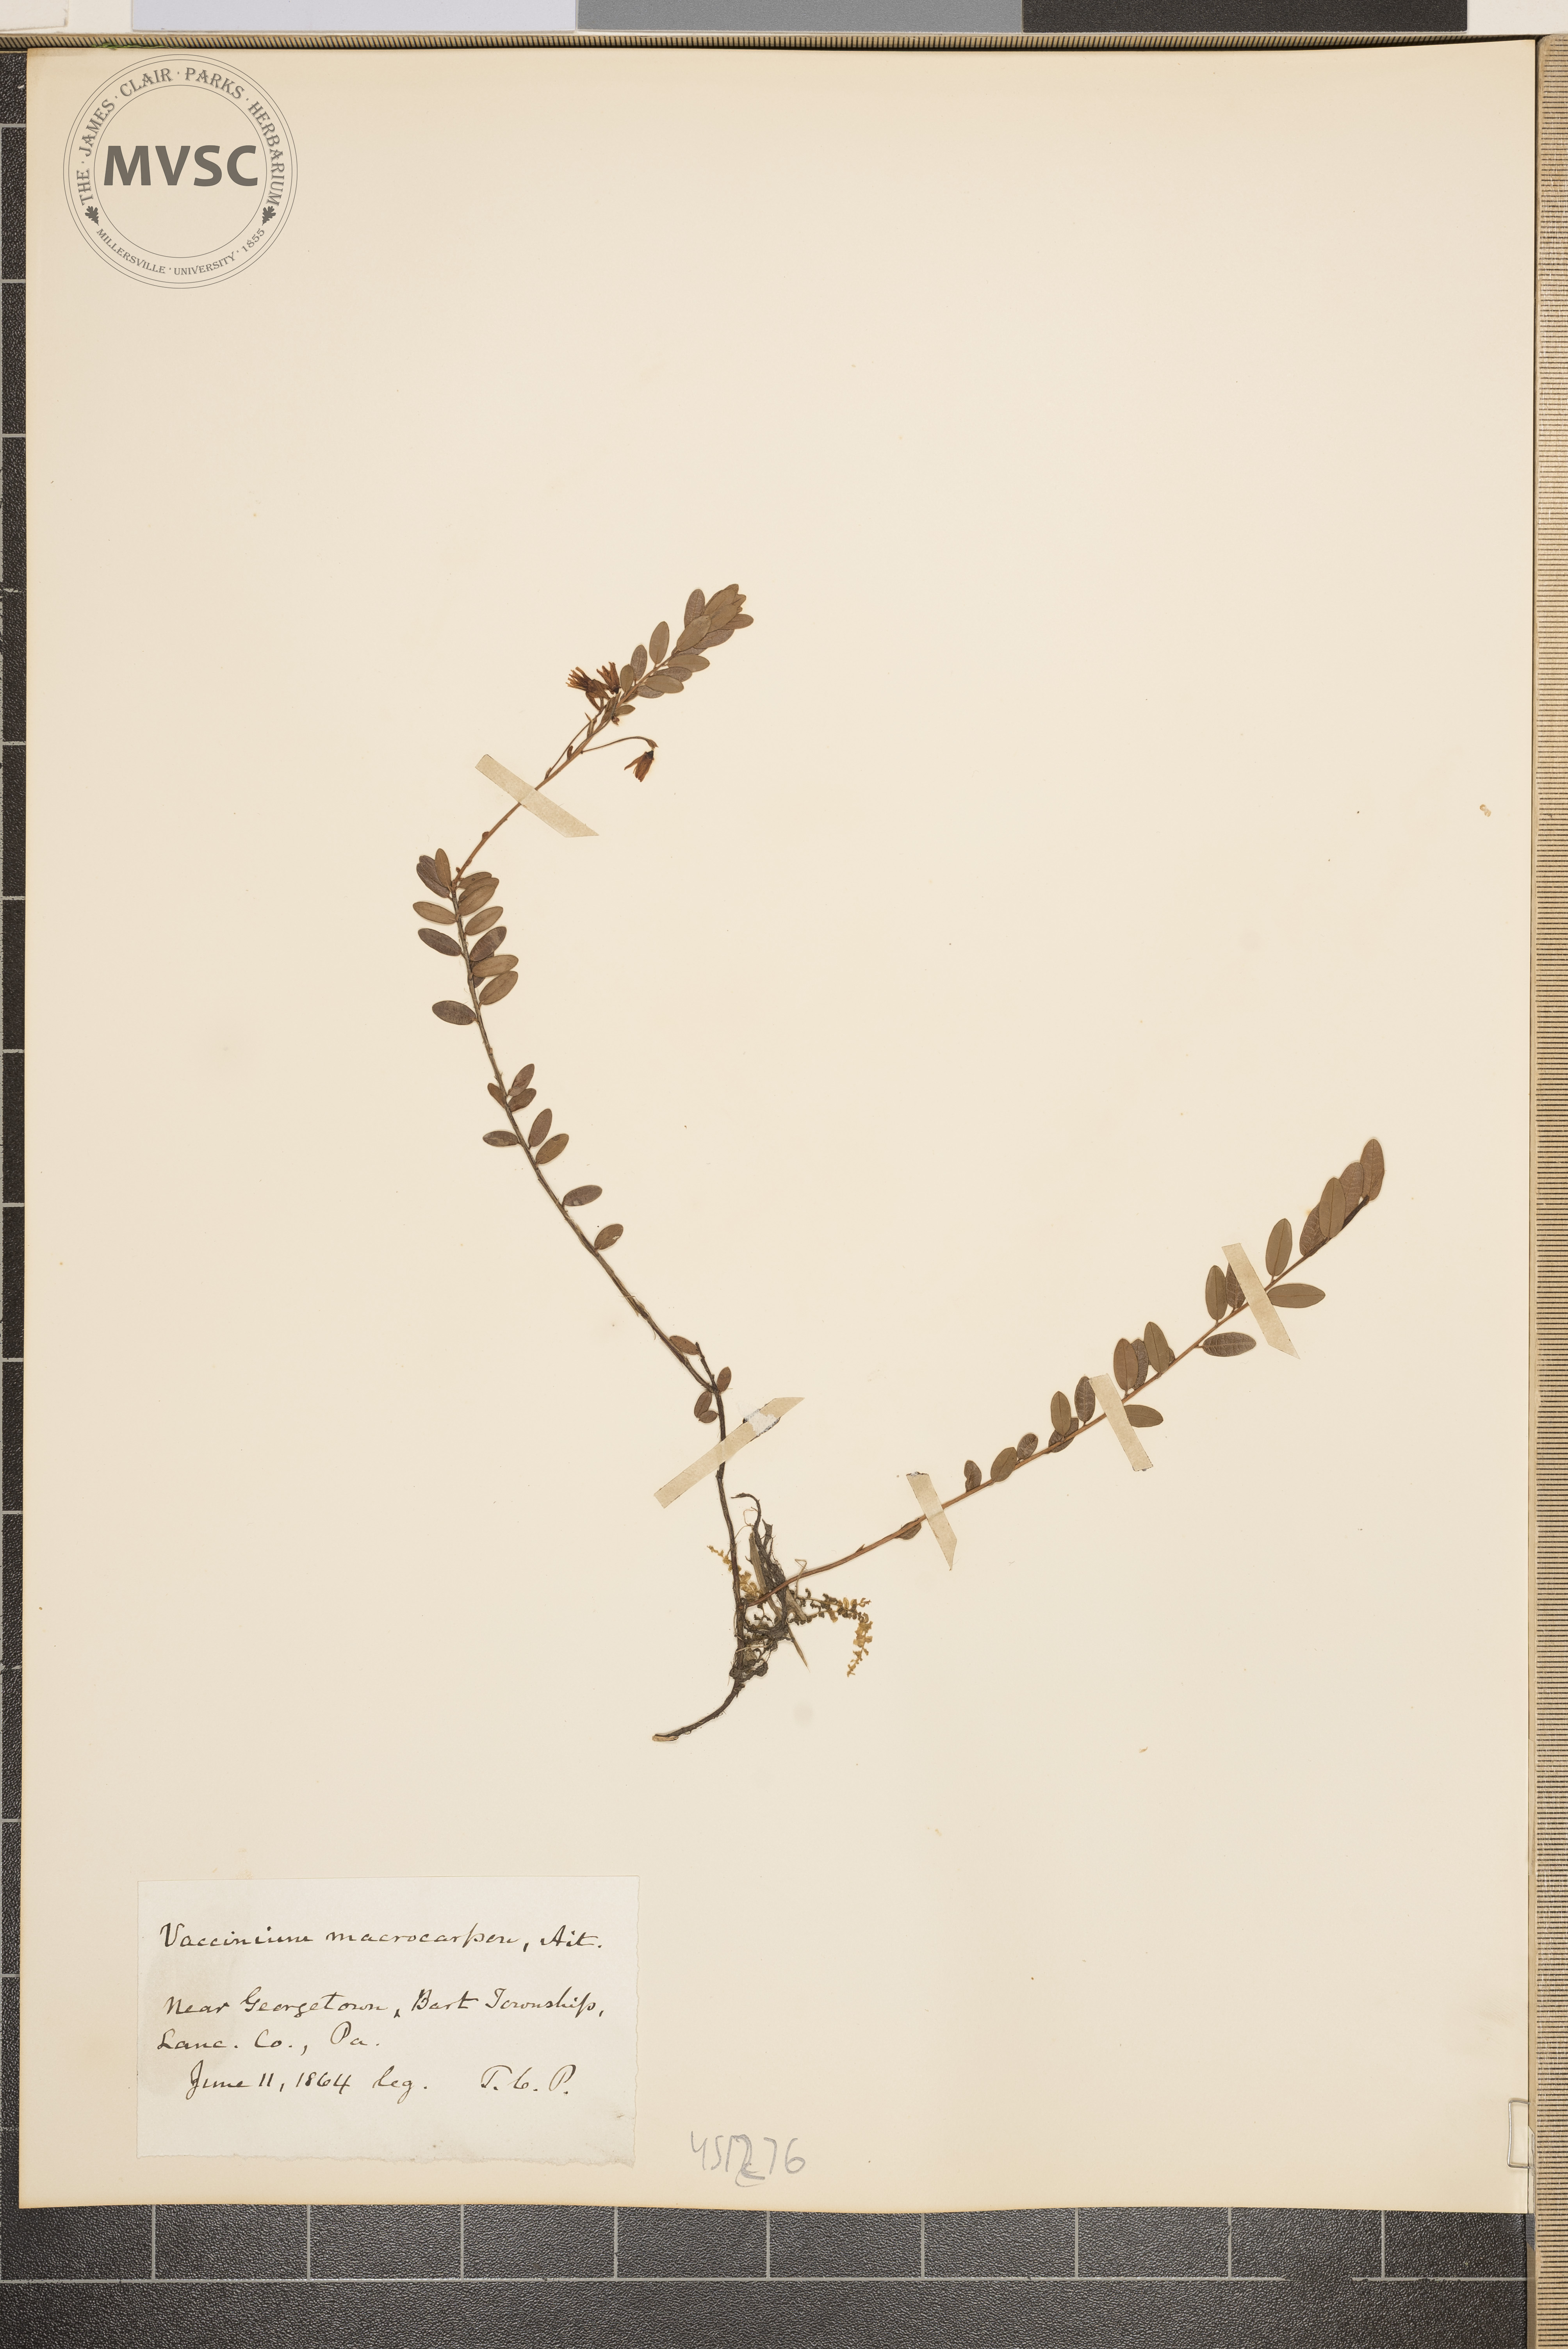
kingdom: Plantae
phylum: Tracheophyta
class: Magnoliopsida
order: Ericales
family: Ericaceae
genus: Vaccinium
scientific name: Vaccinium macrocarpon
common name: American cranberry
